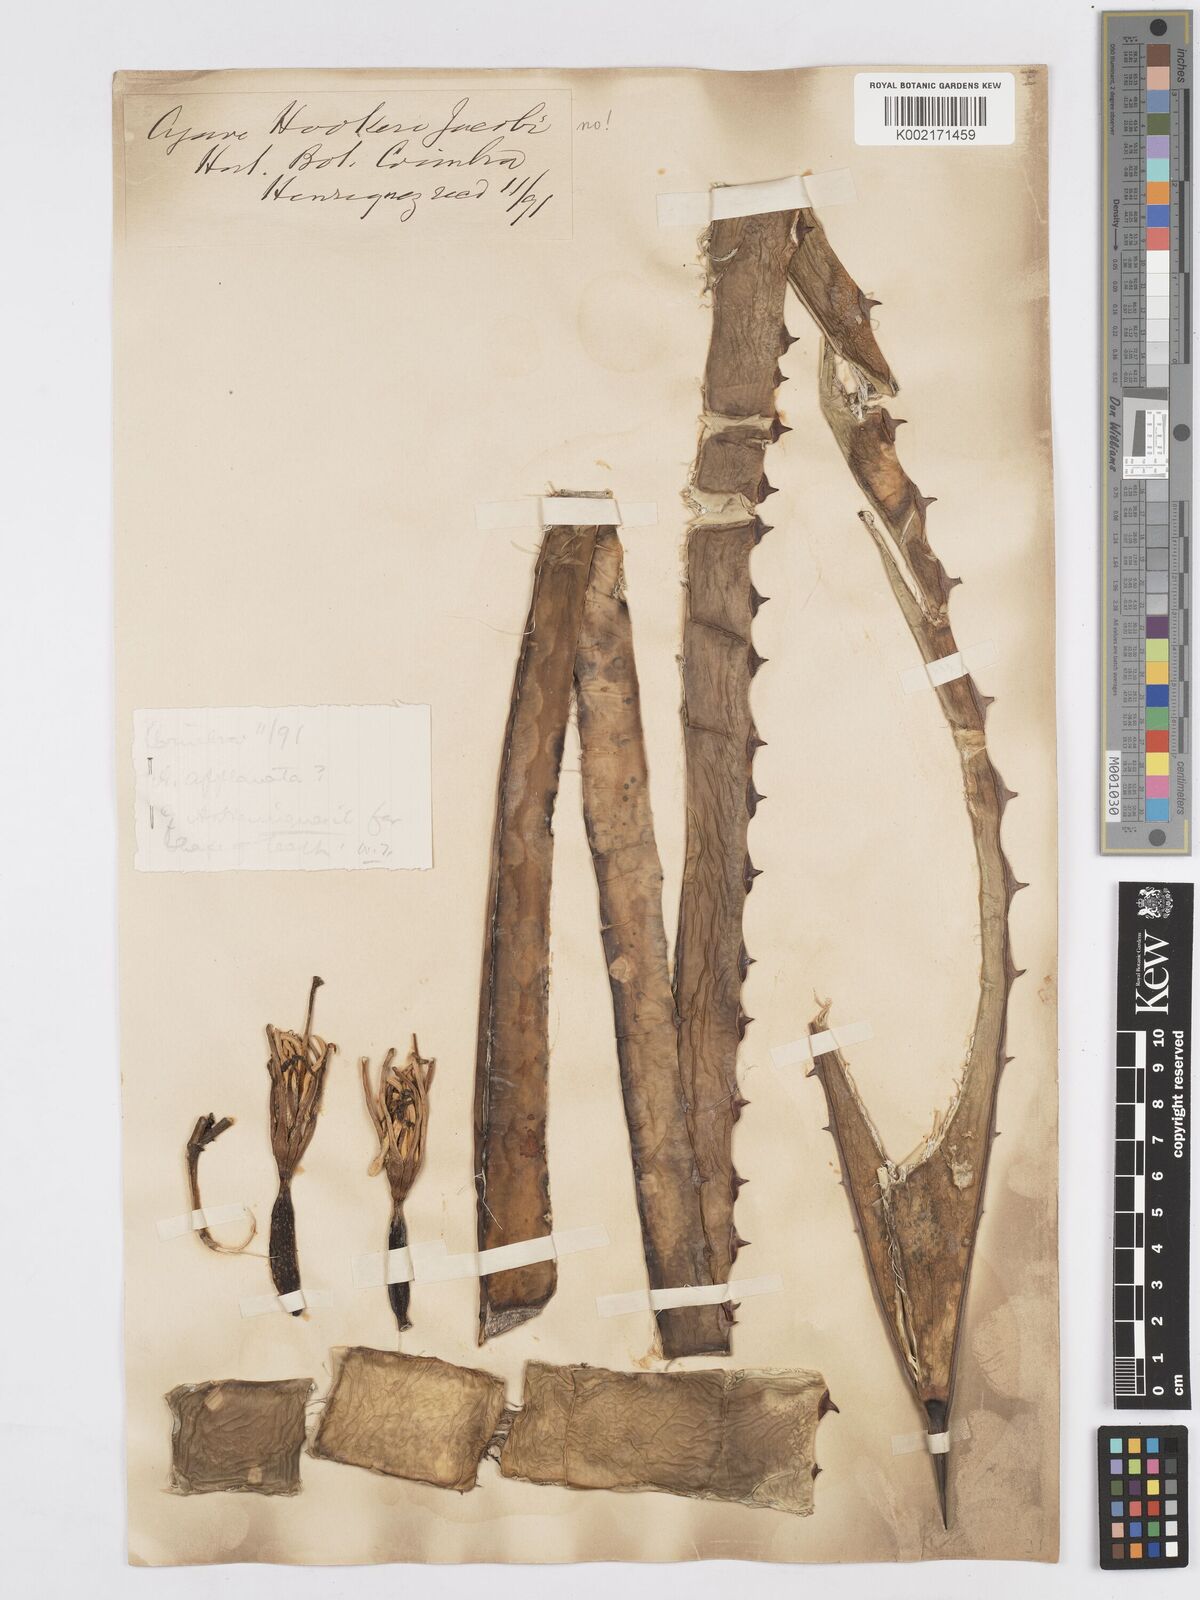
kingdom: Plantae
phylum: Tracheophyta
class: Liliopsida
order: Asparagales
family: Asparagaceae
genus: Agave
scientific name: Agave applanata
